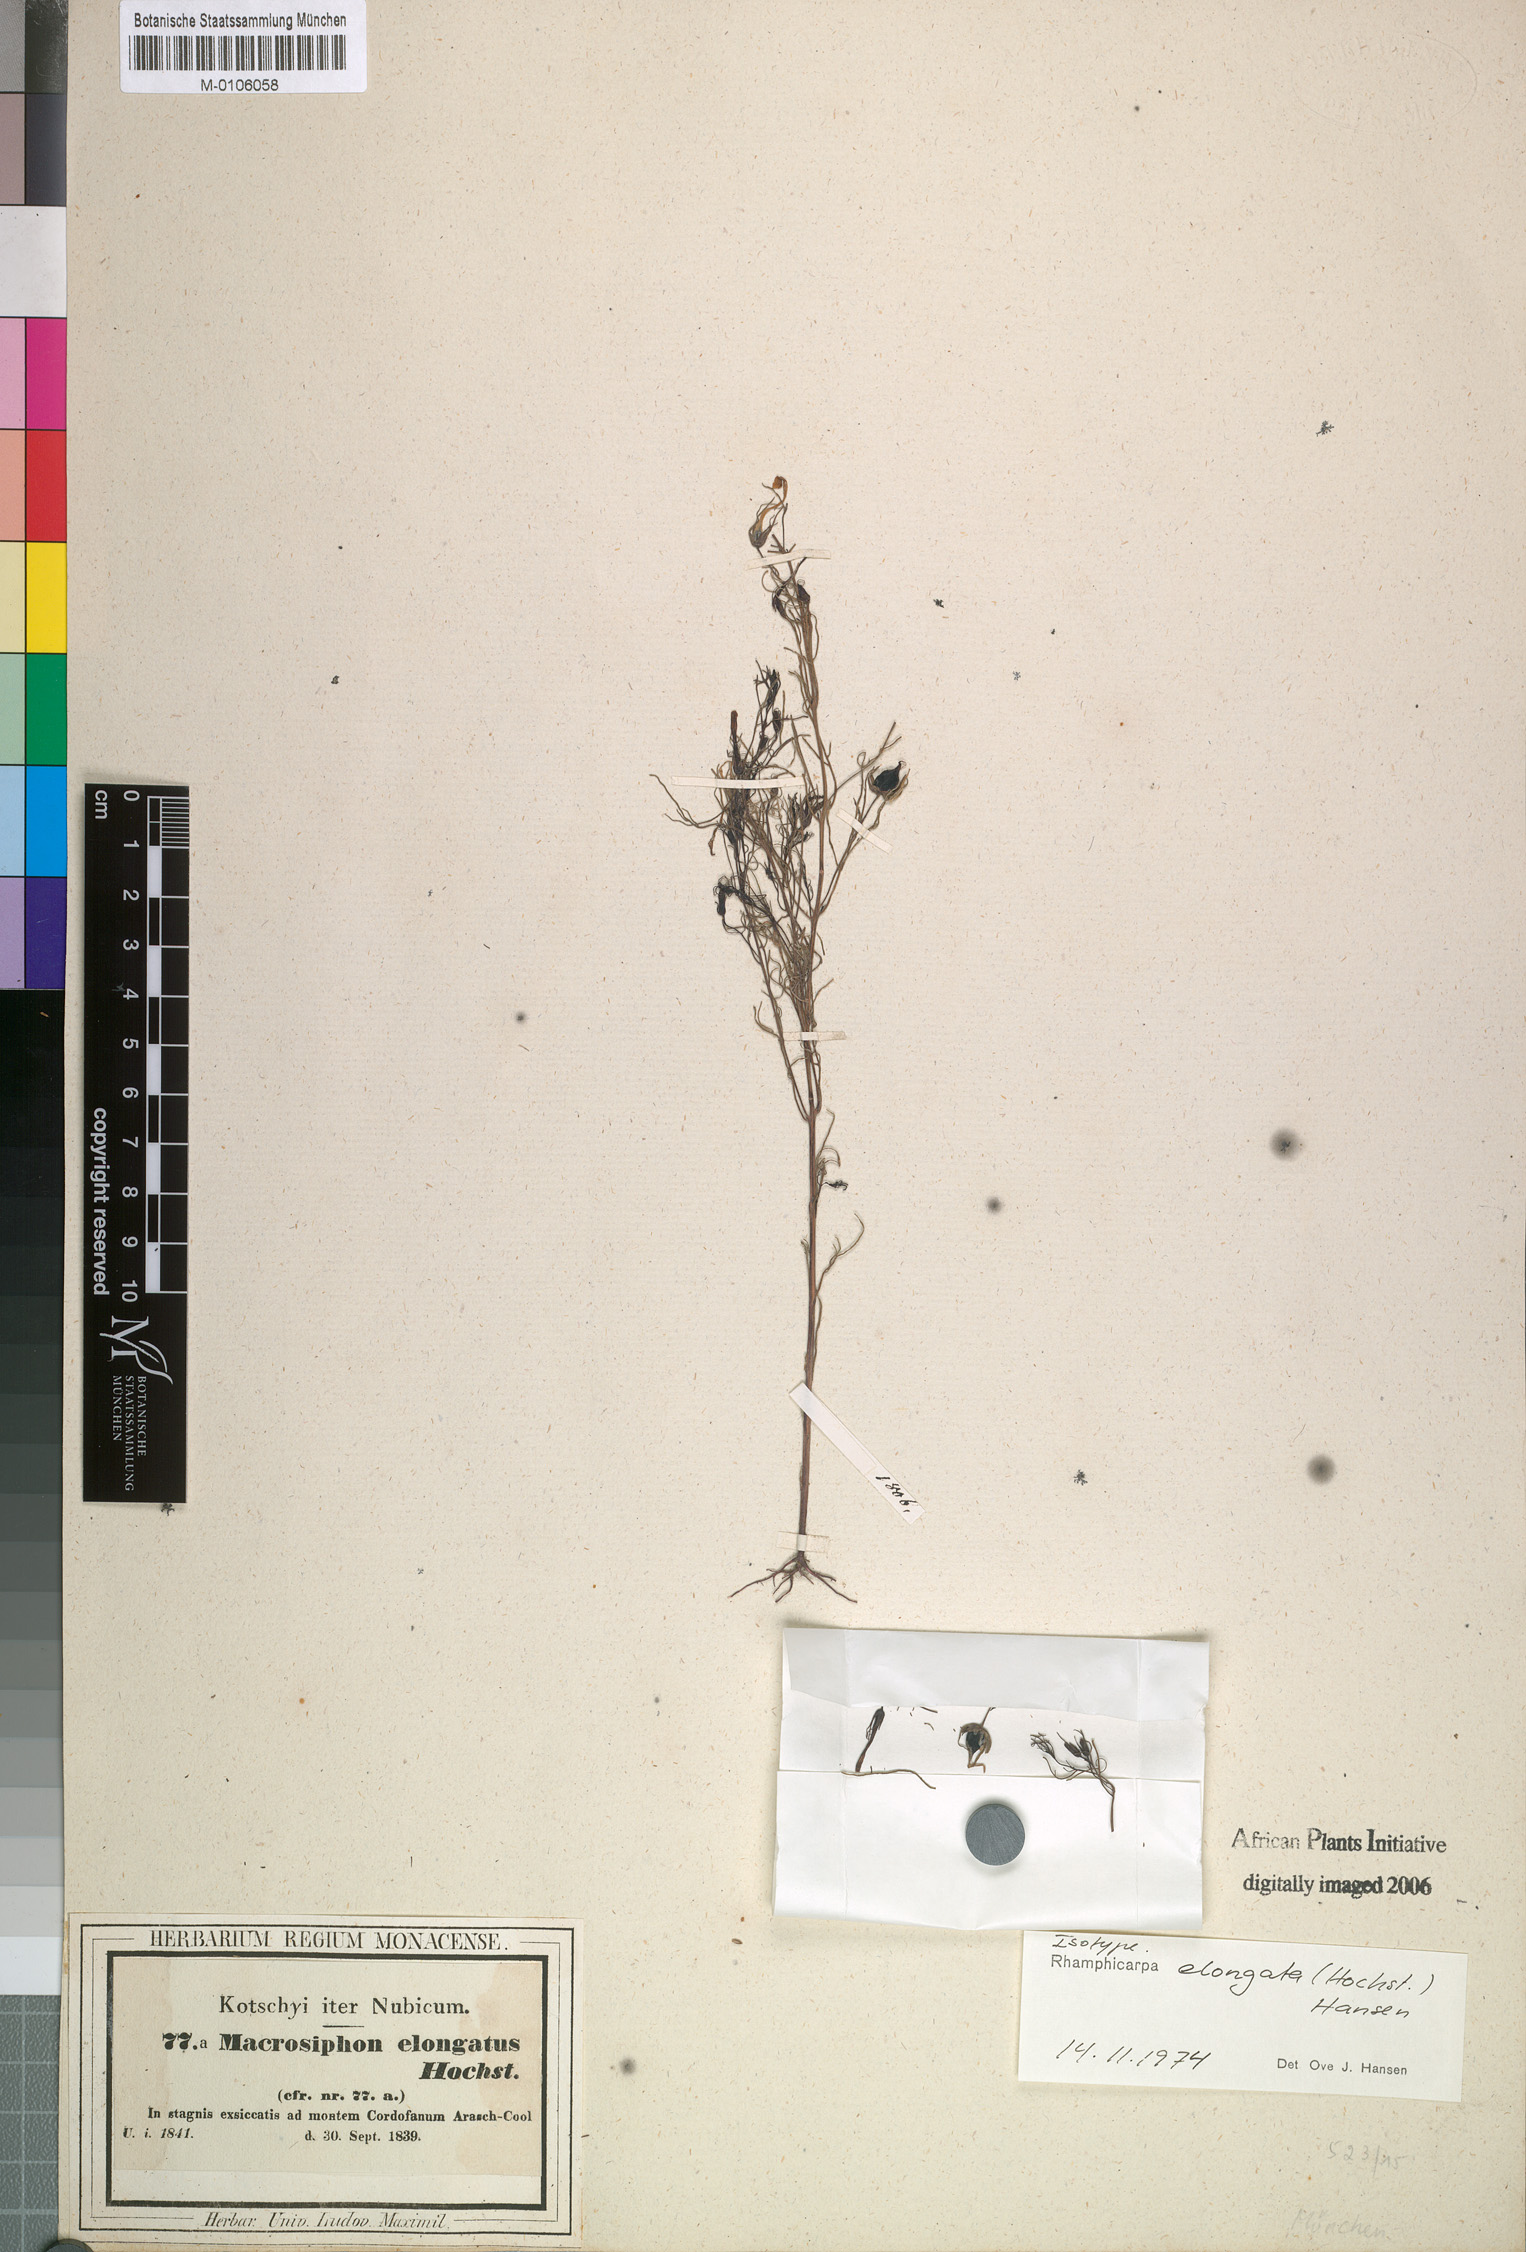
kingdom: Plantae
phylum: Tracheophyta
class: Magnoliopsida
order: Lamiales
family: Orobanchaceae
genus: Rhamphicarpa
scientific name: Rhamphicarpa elongata
